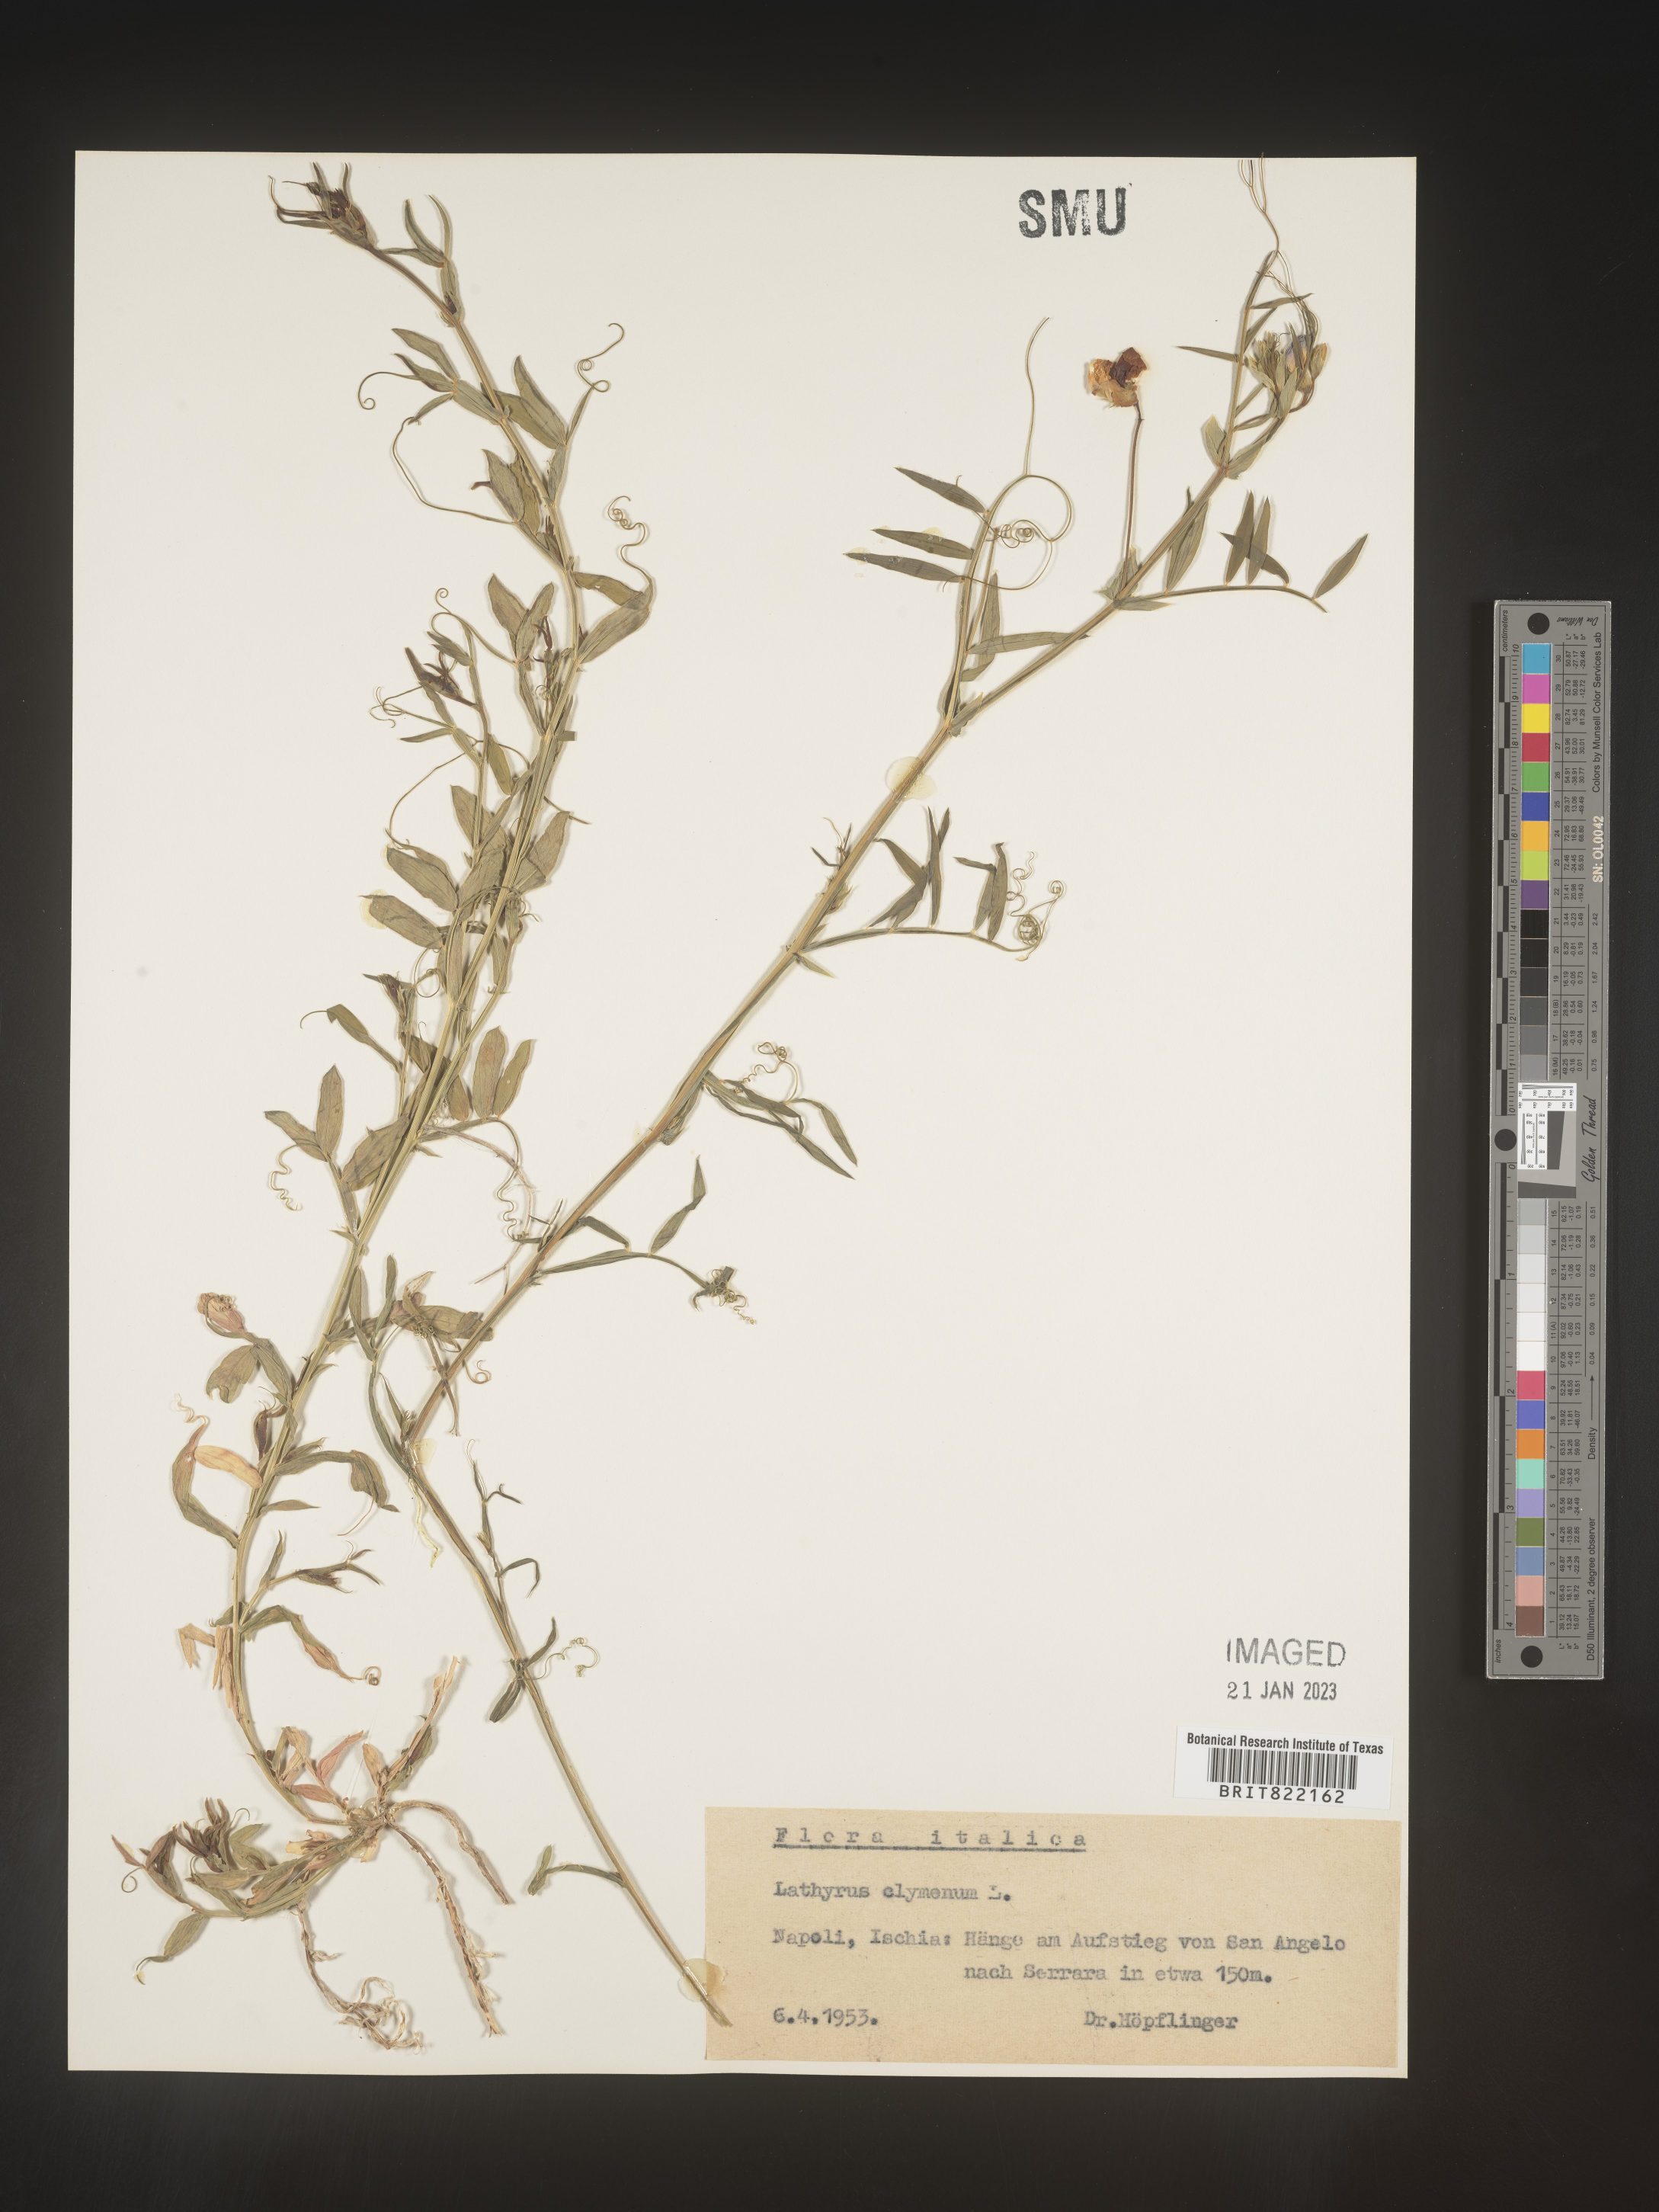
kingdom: Plantae
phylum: Tracheophyta
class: Magnoliopsida
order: Fabales
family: Fabaceae
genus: Lathyrus
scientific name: Lathyrus
